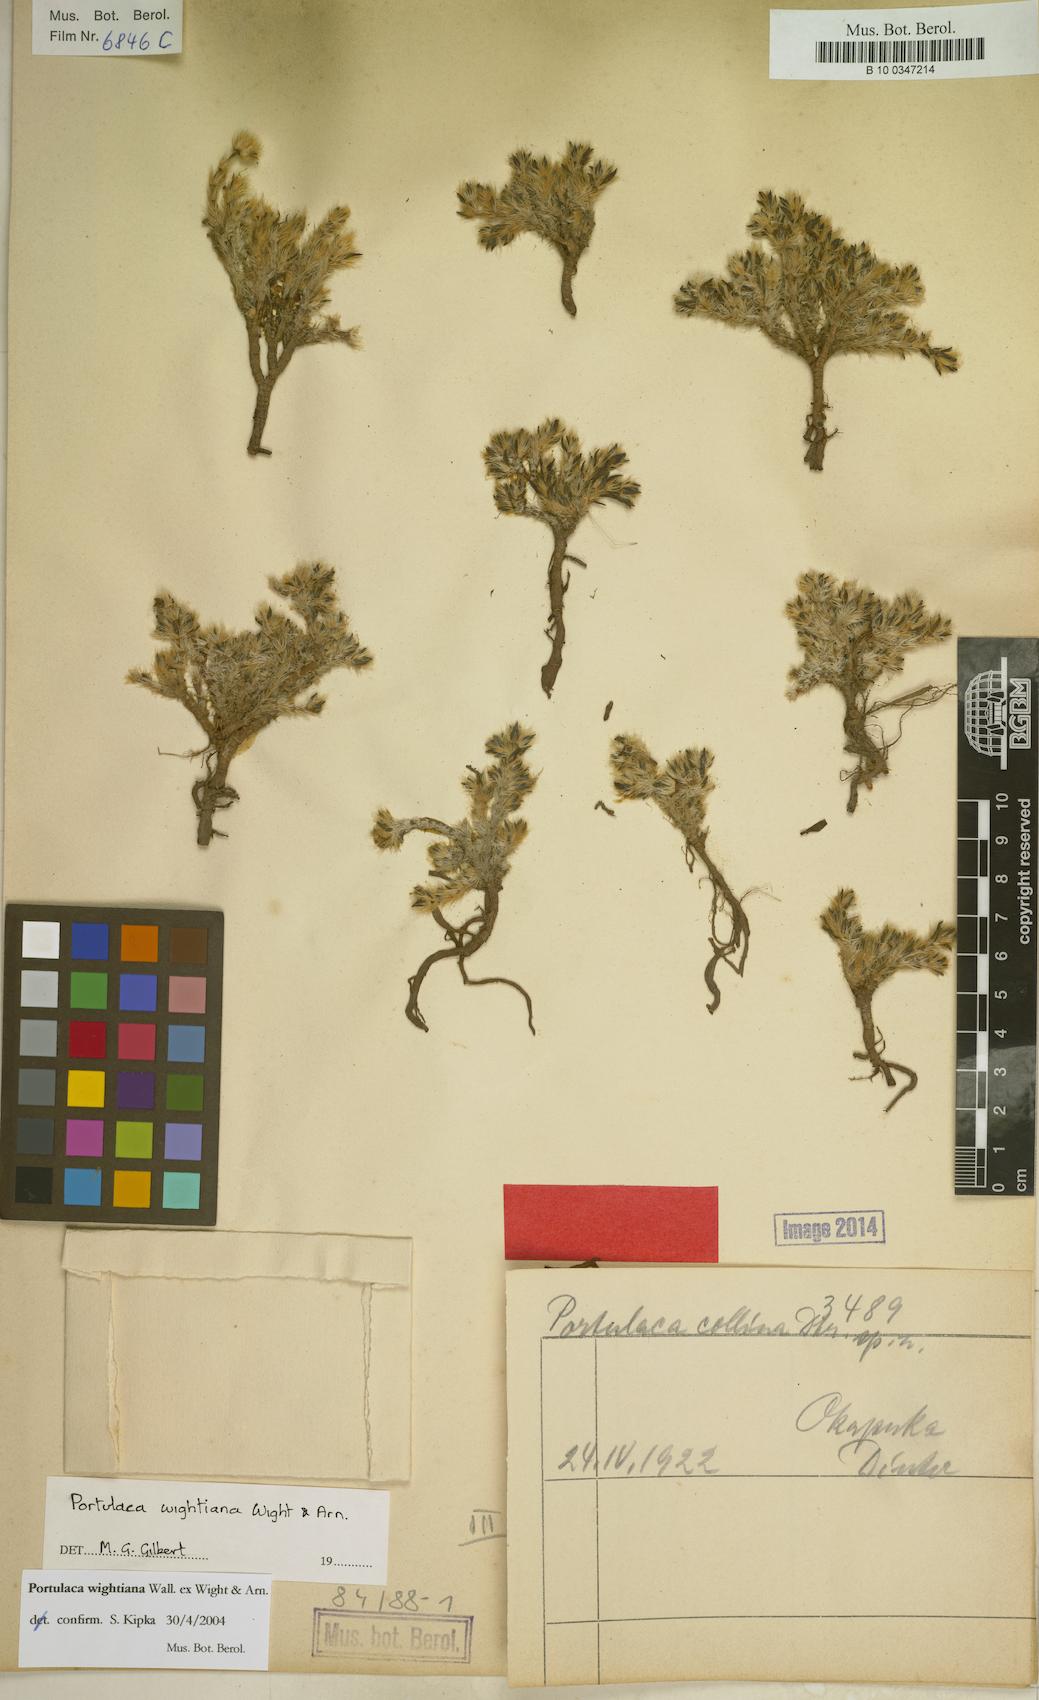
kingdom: Plantae
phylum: Tracheophyta
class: Magnoliopsida
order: Caryophyllales
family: Portulacaceae
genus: Portulaca
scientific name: Portulaca wightiana
